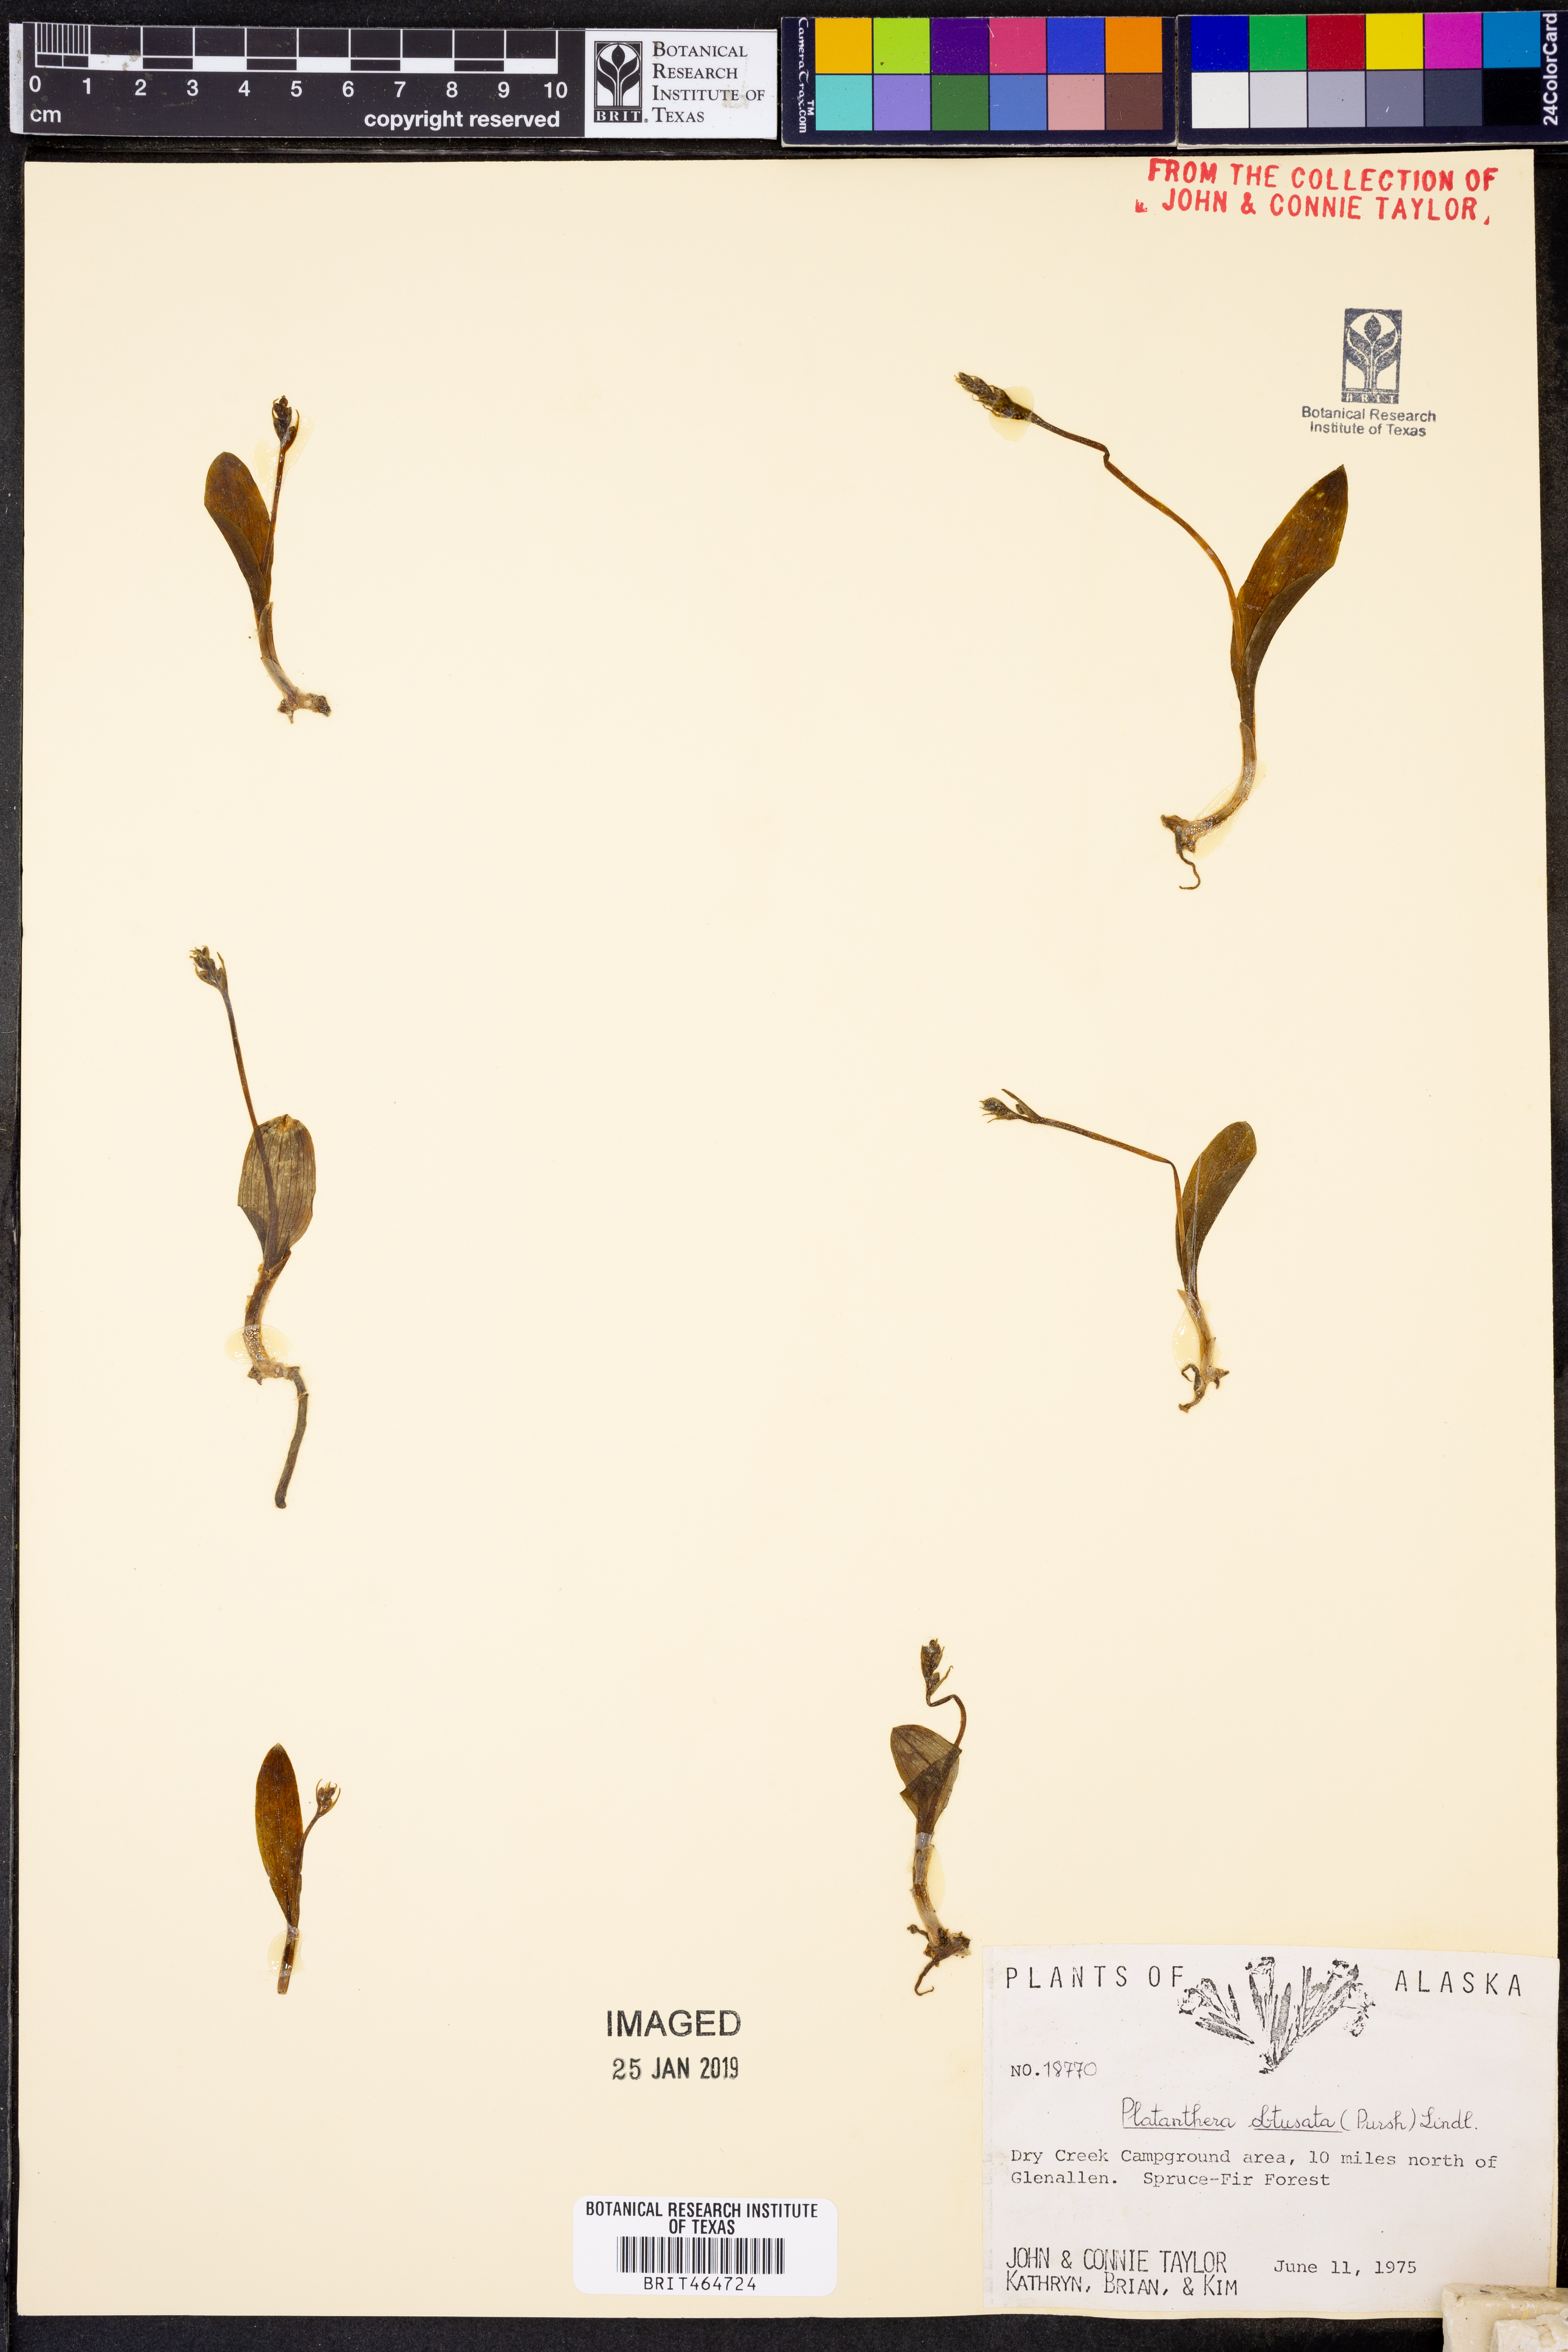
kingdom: Plantae
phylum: Tracheophyta
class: Liliopsida
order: Asparagales
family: Orchidaceae
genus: Platanthera
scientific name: Platanthera obtusata
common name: Blunt bog orchid
